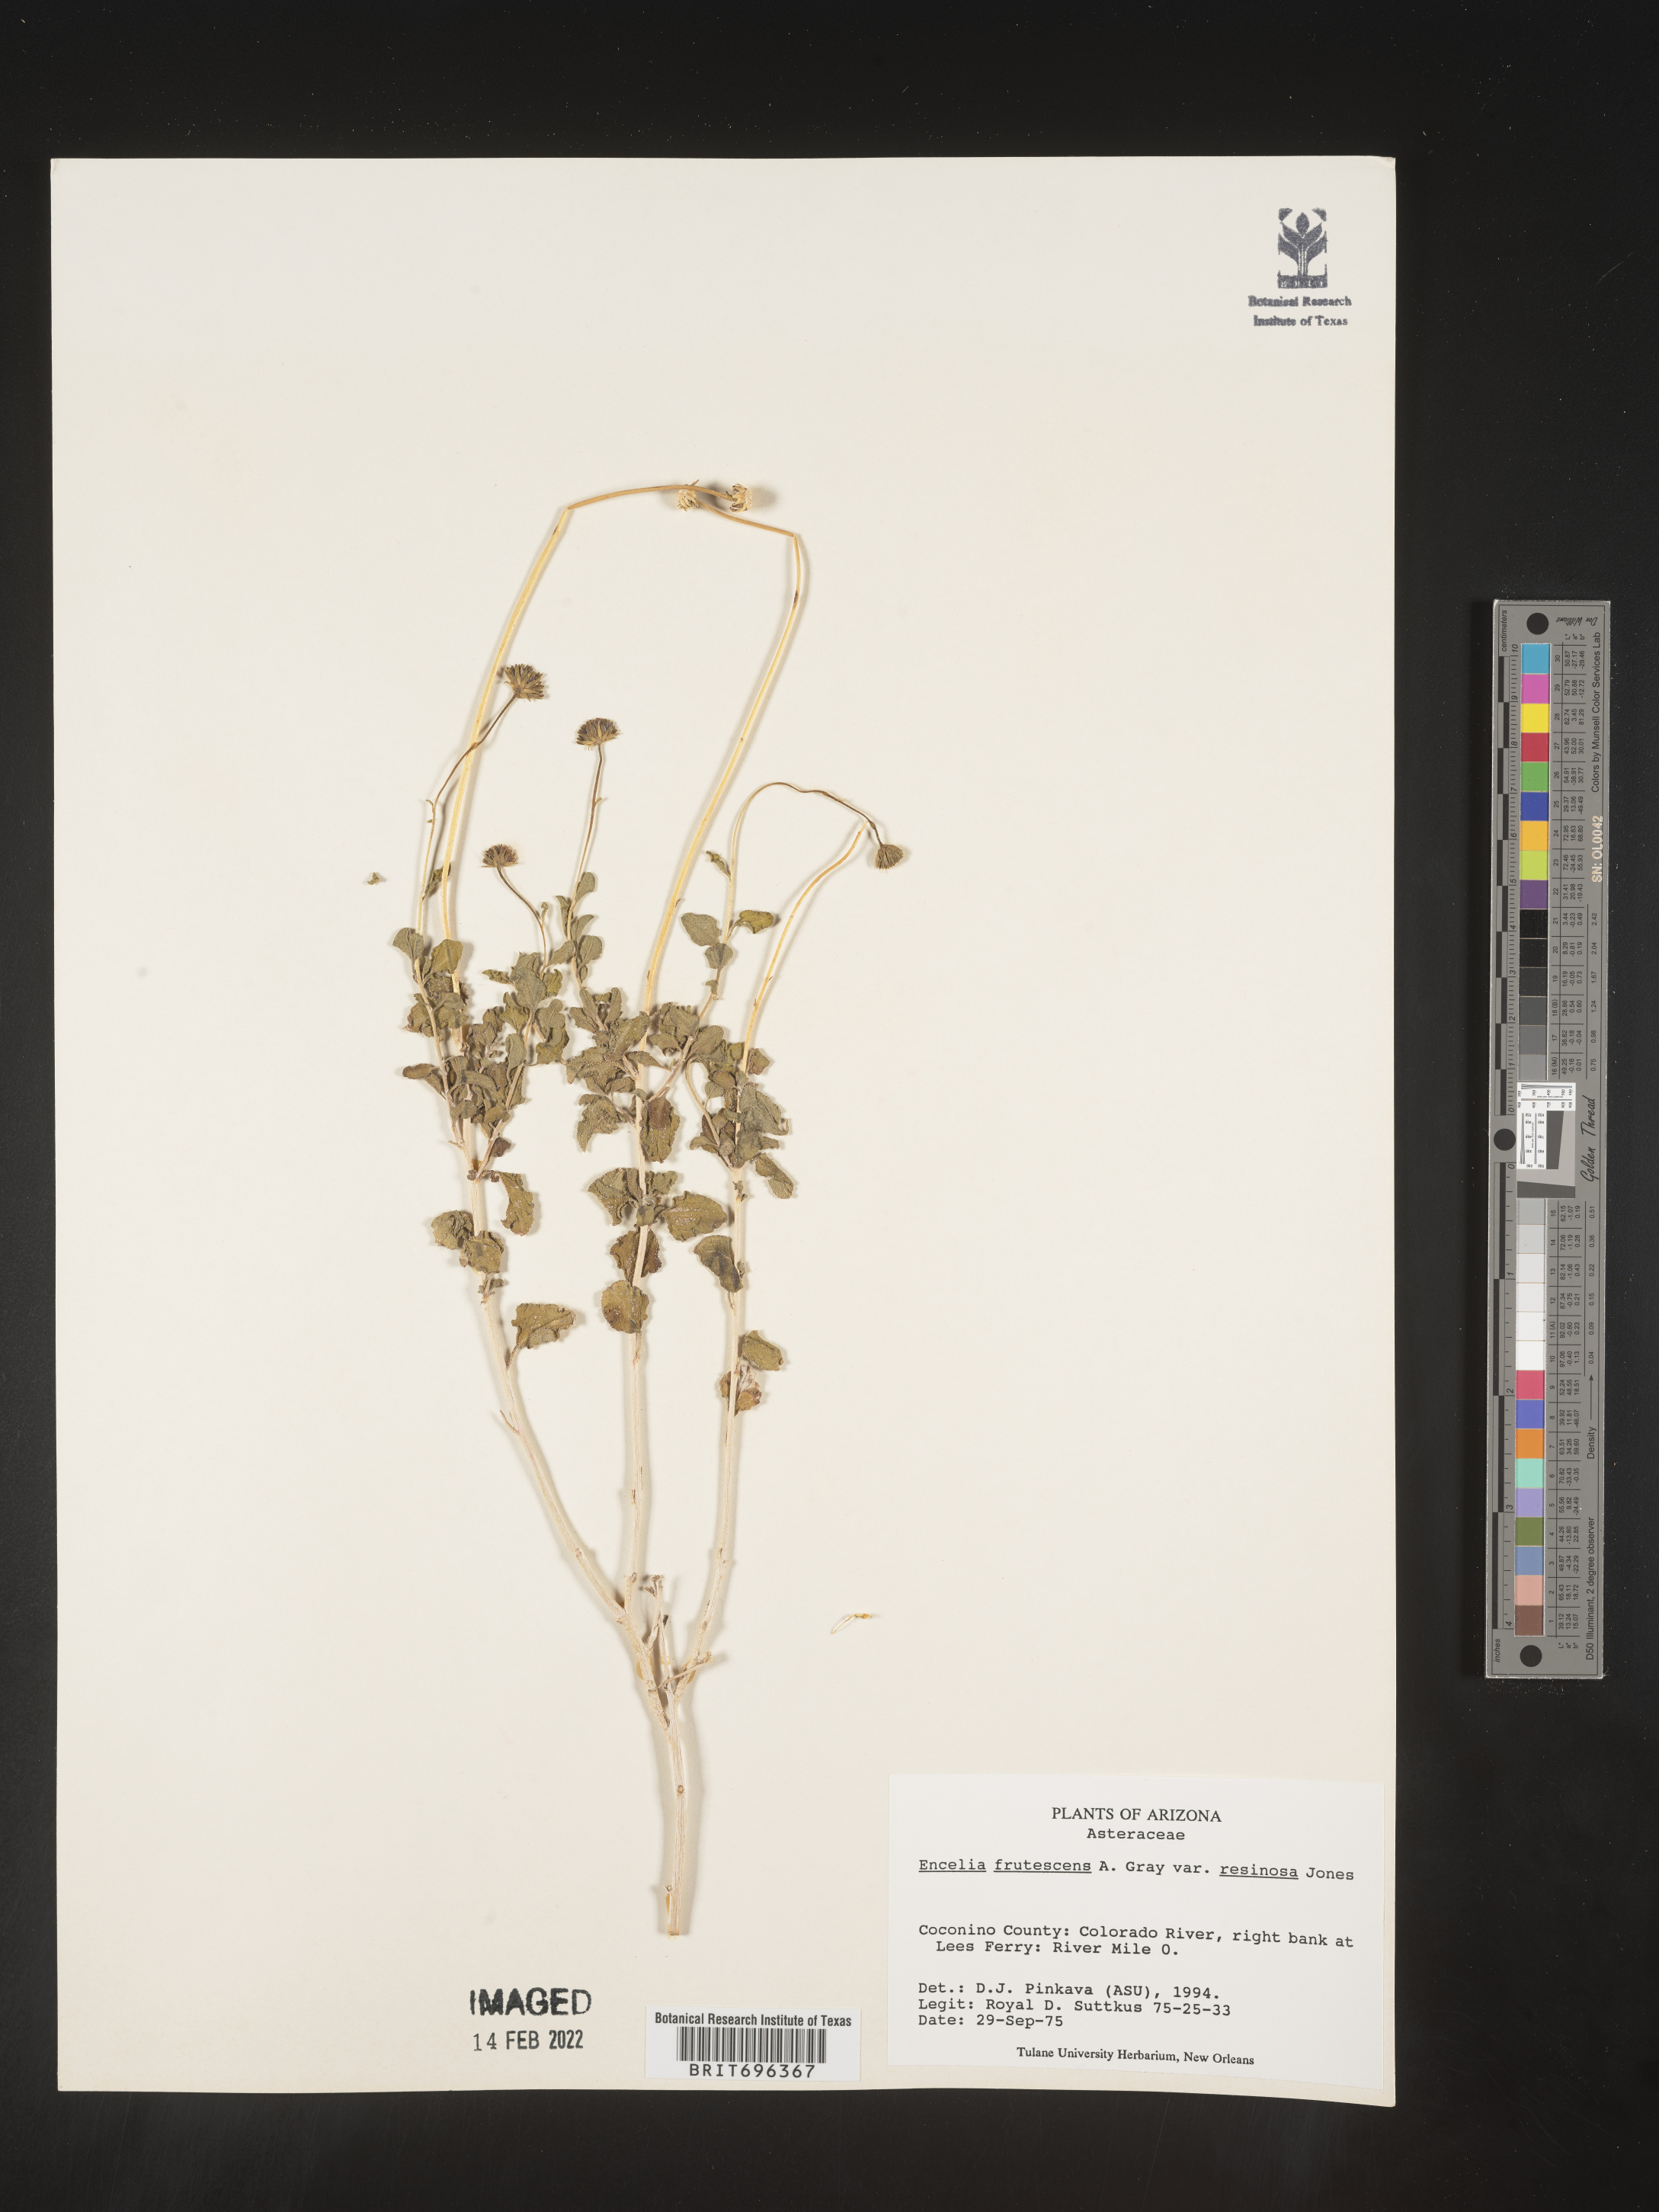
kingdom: Plantae
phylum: Tracheophyta
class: Magnoliopsida
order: Asterales
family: Asteraceae
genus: Encelia
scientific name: Encelia frutescens
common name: Bush encelia
